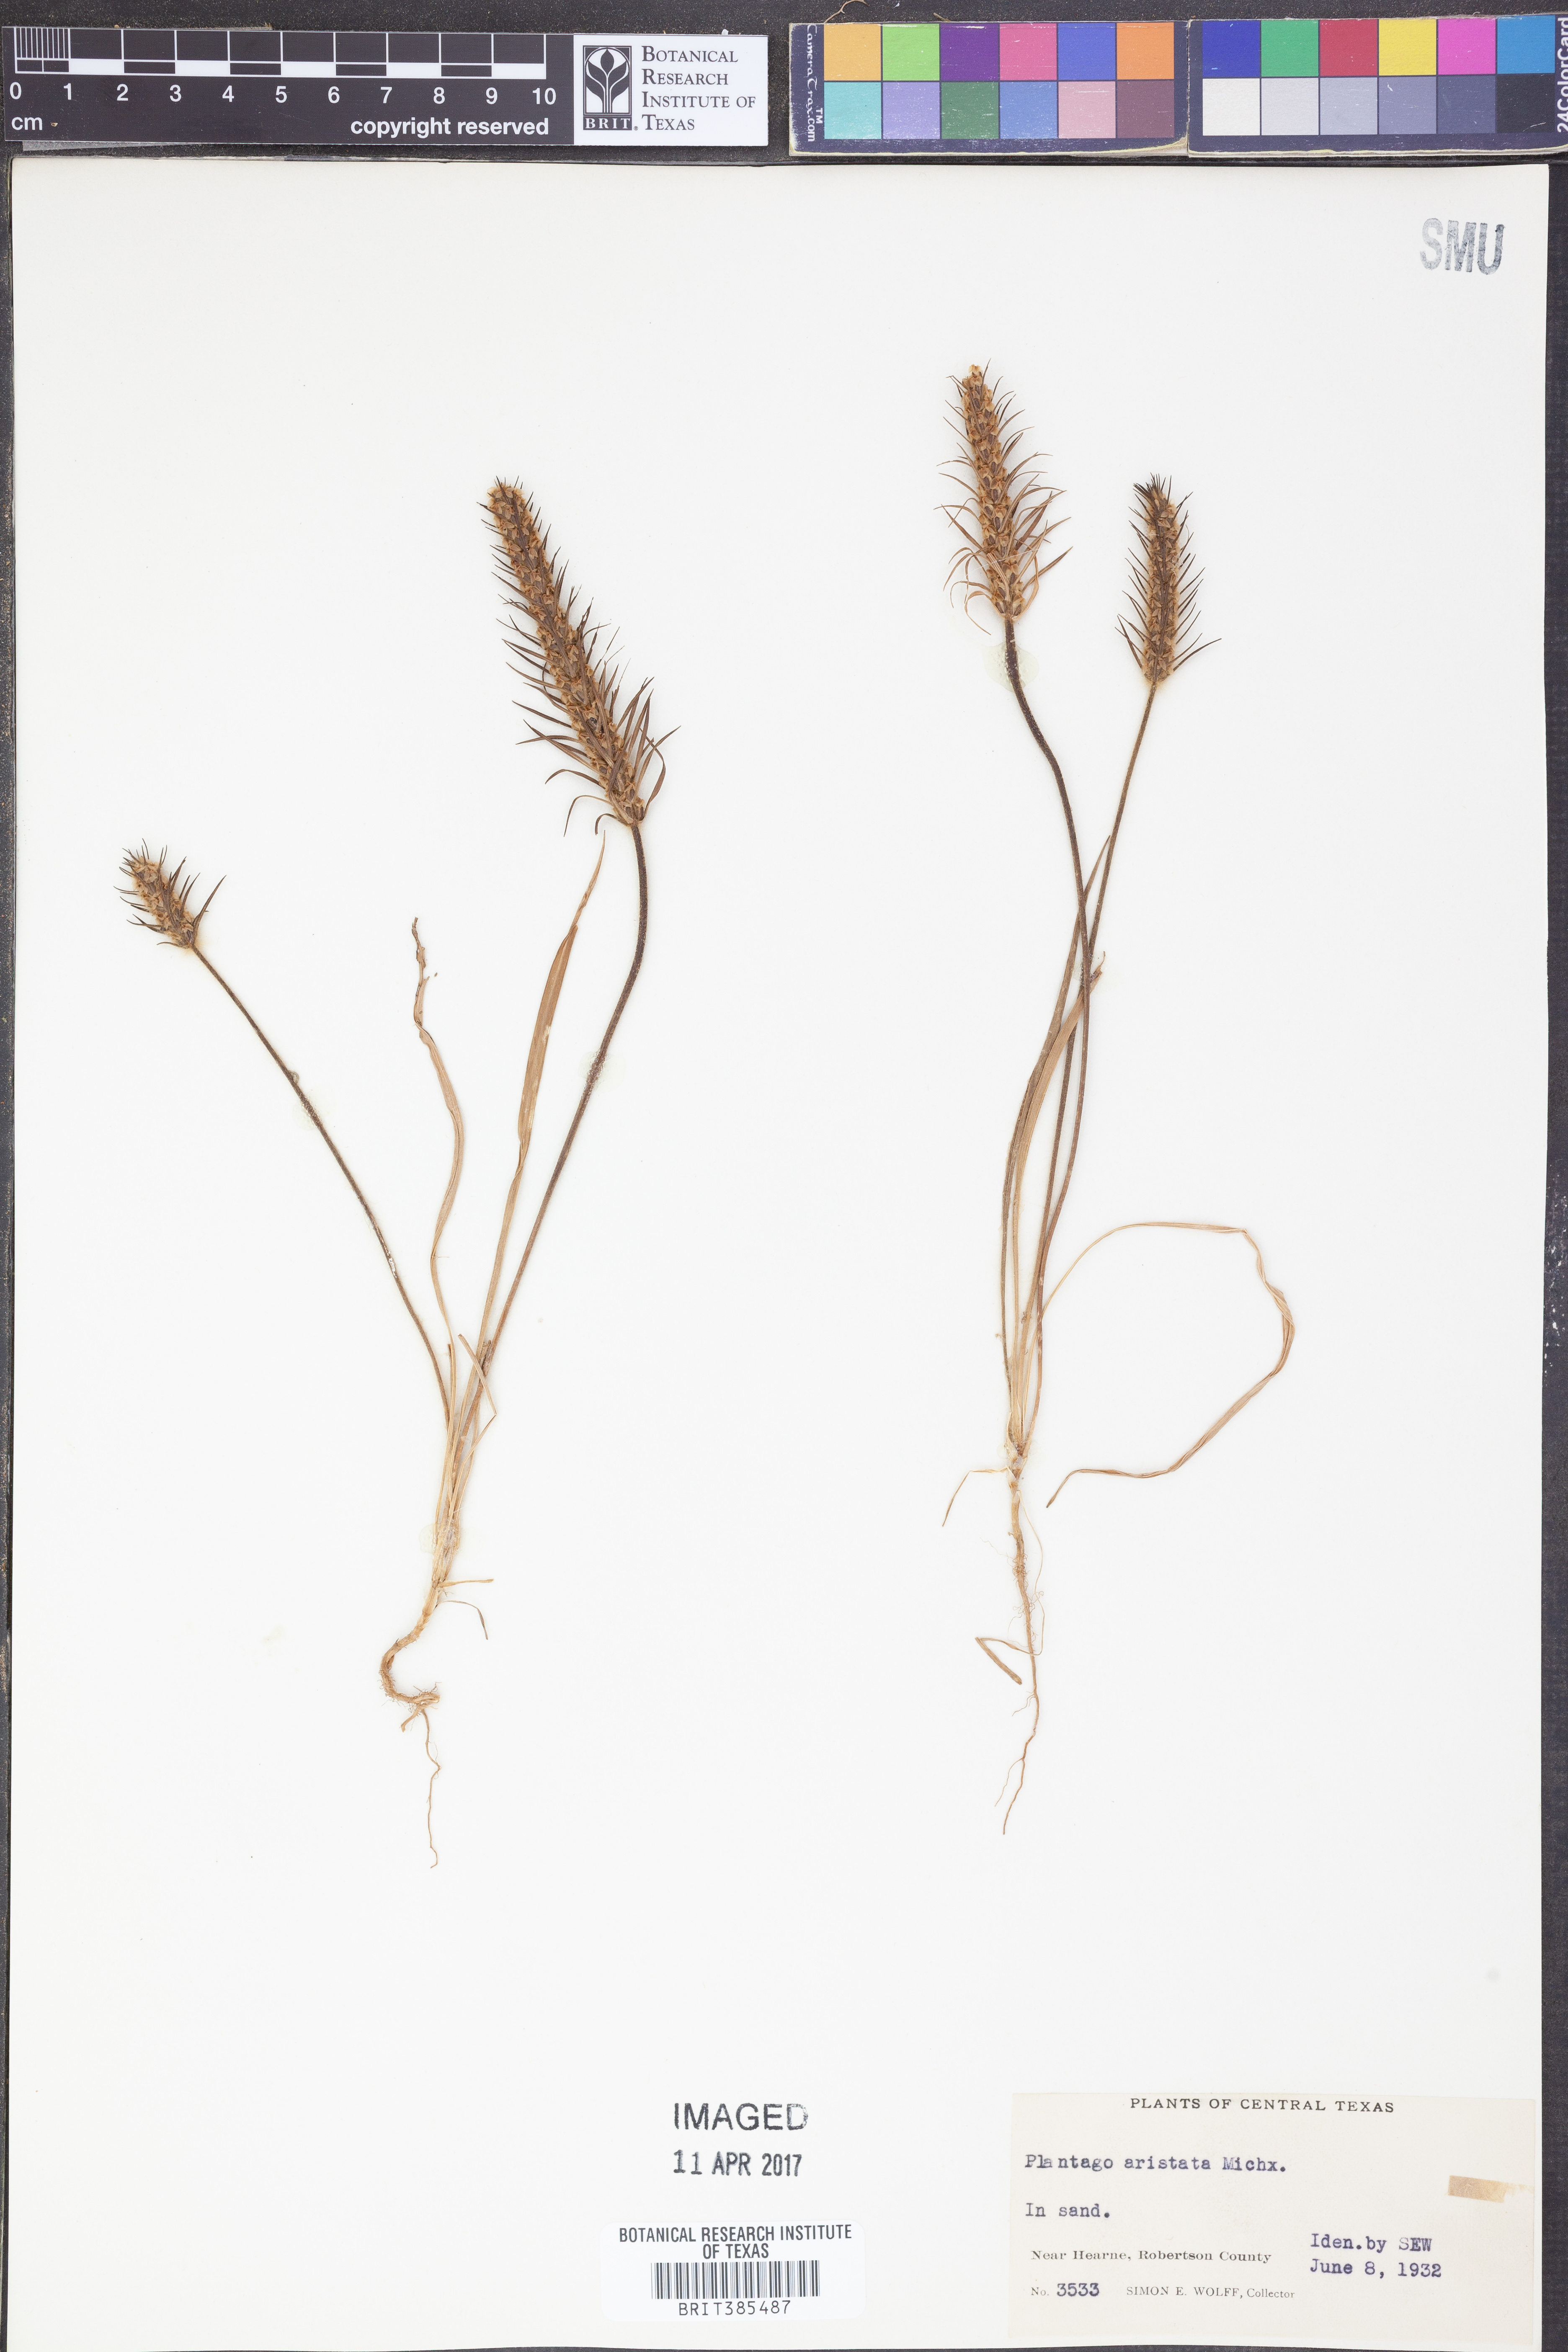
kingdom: Plantae
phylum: Tracheophyta
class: Magnoliopsida
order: Lamiales
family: Plantaginaceae
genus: Plantago
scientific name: Plantago aristata
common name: Bracted plantain
